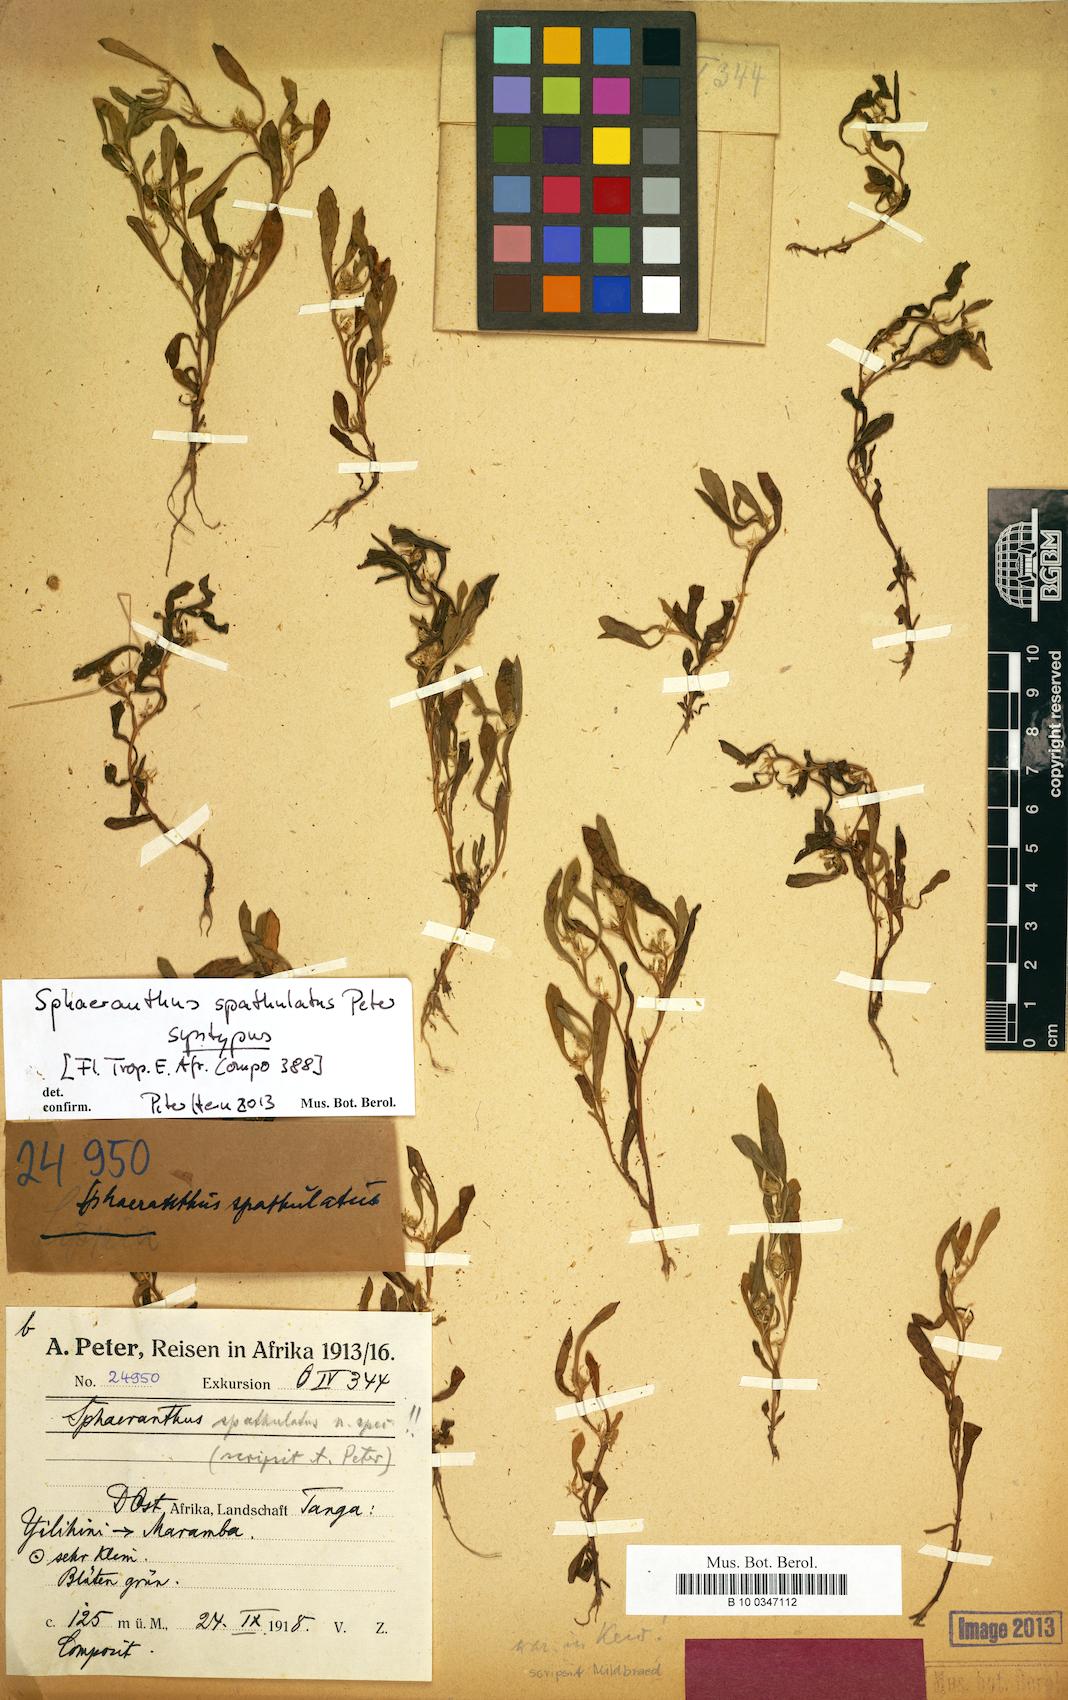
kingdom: Plantae
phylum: Tracheophyta
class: Magnoliopsida
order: Asterales
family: Asteraceae
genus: Sphaeranthus
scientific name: Sphaeranthus spathulatus
